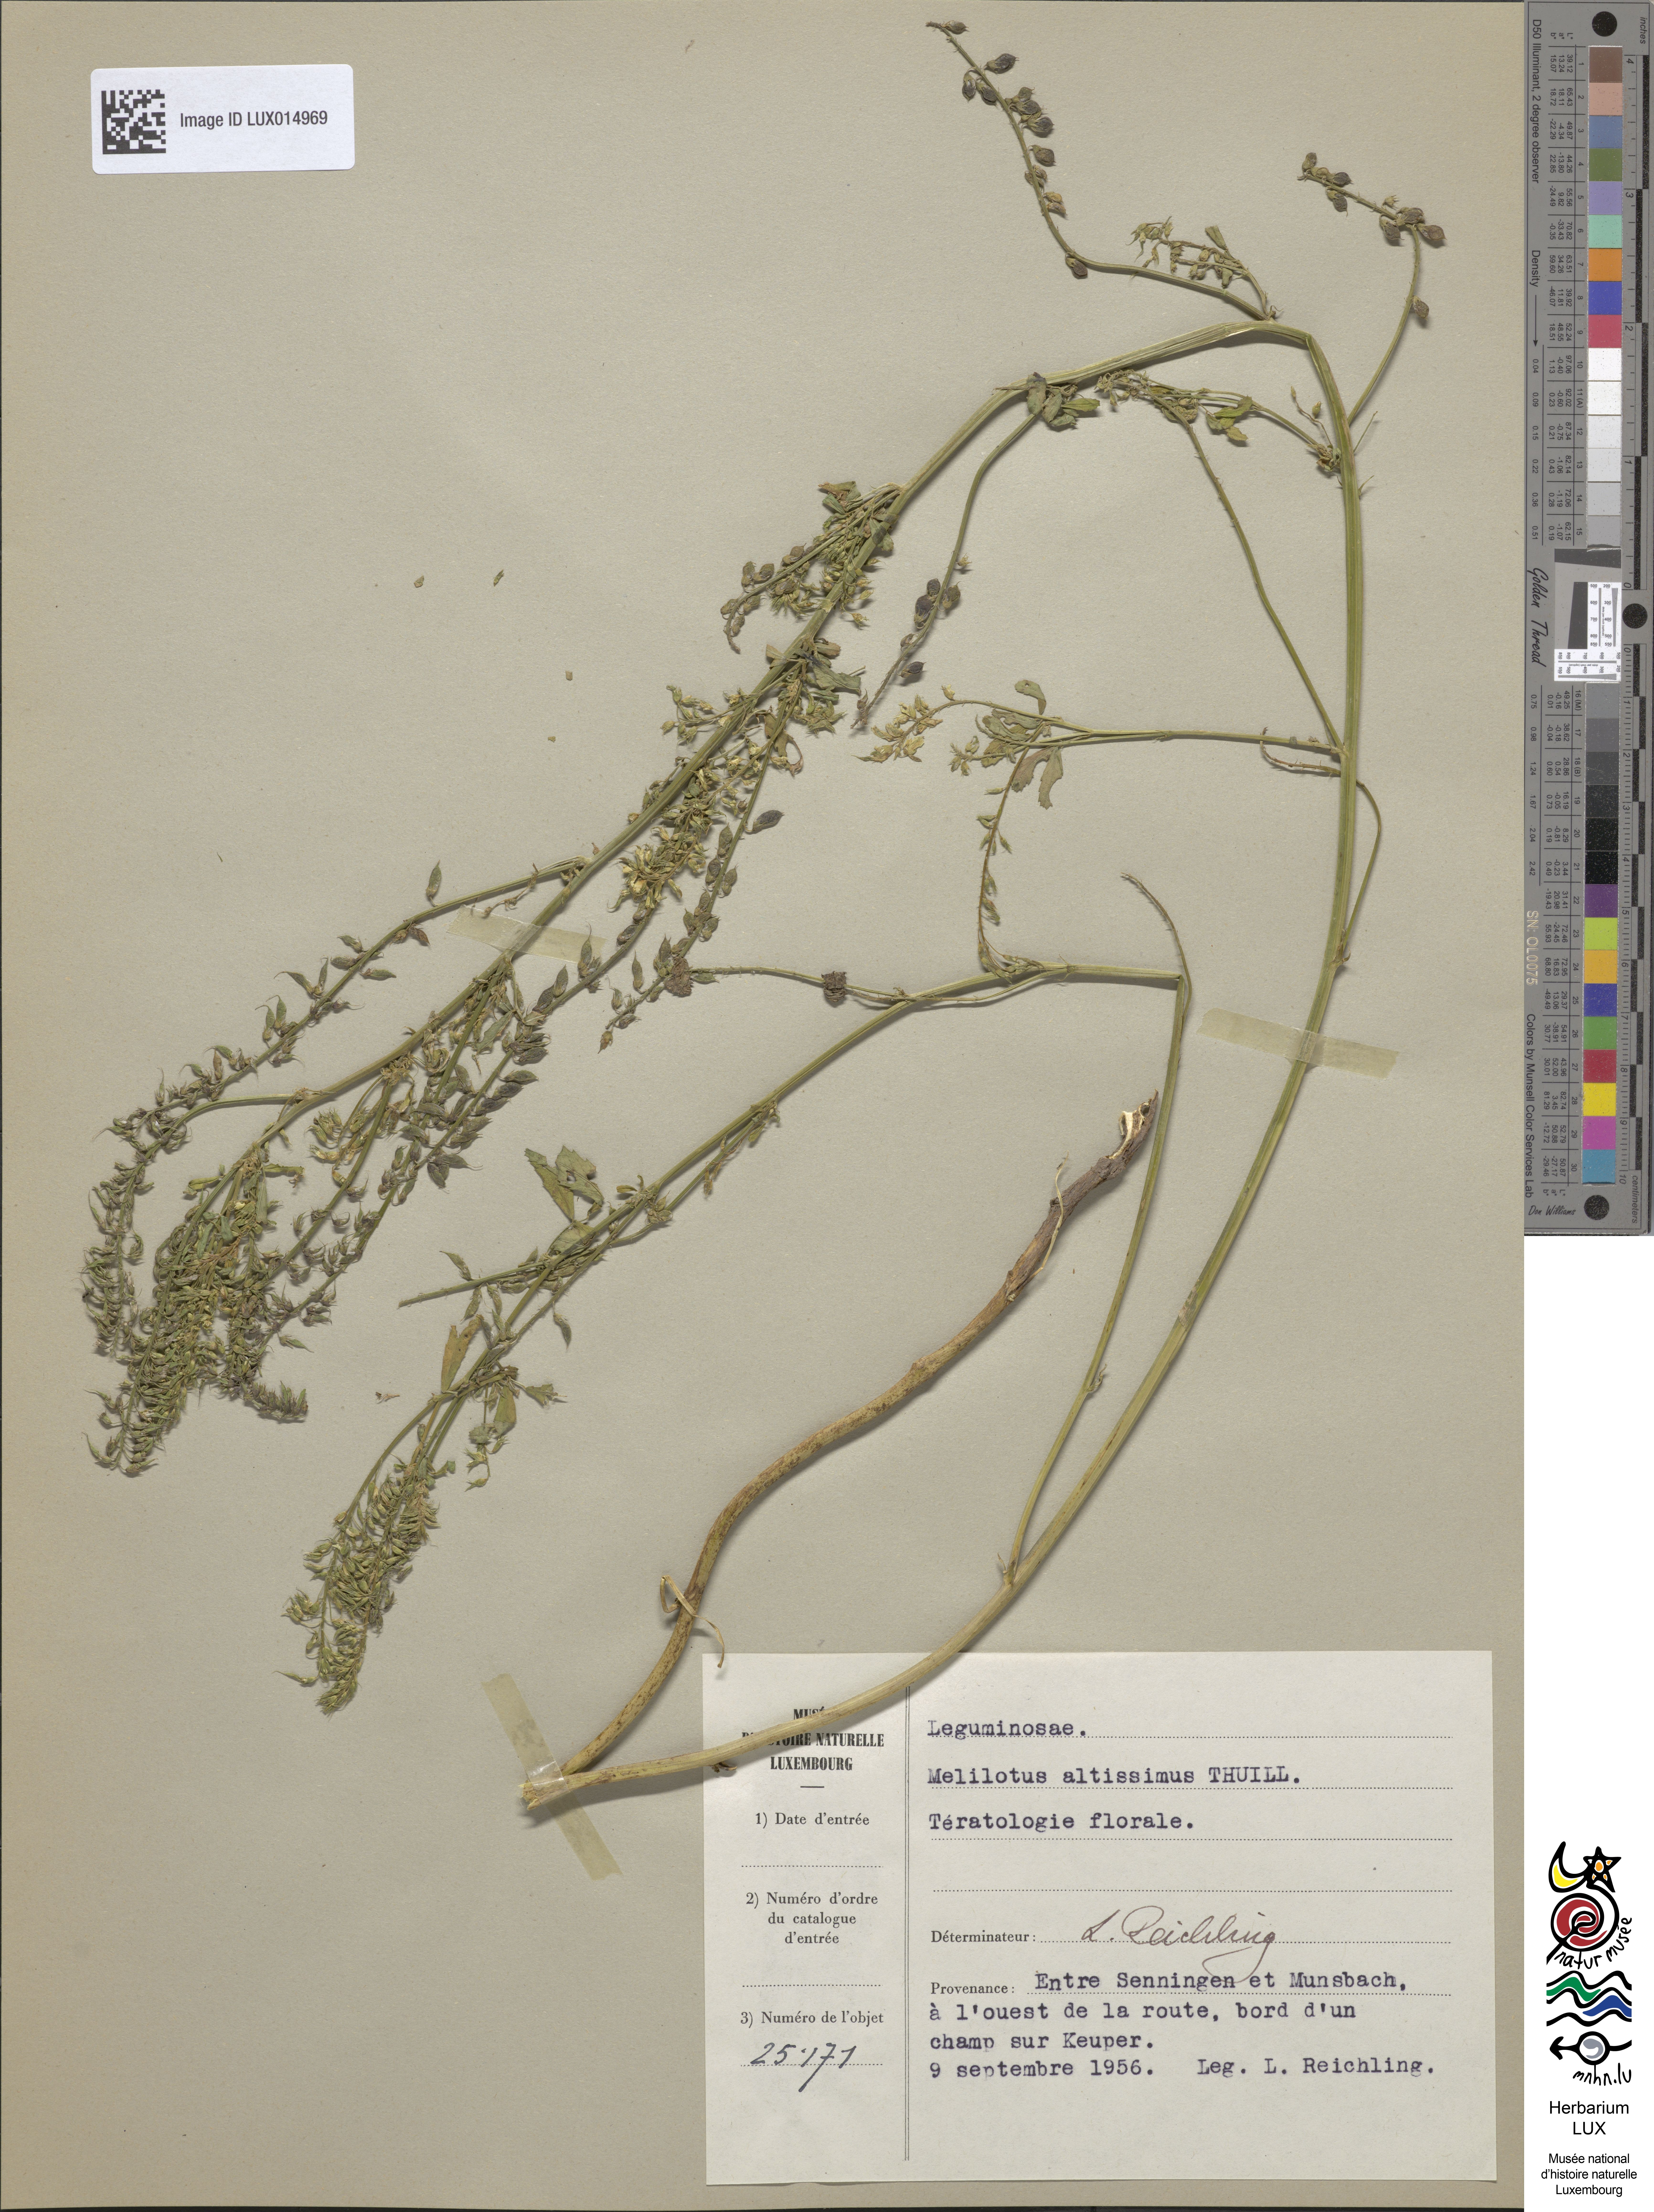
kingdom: Plantae
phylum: Tracheophyta
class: Magnoliopsida
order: Fabales
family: Fabaceae
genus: Melilotus
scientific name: Melilotus altissimus
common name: Tall melilot
